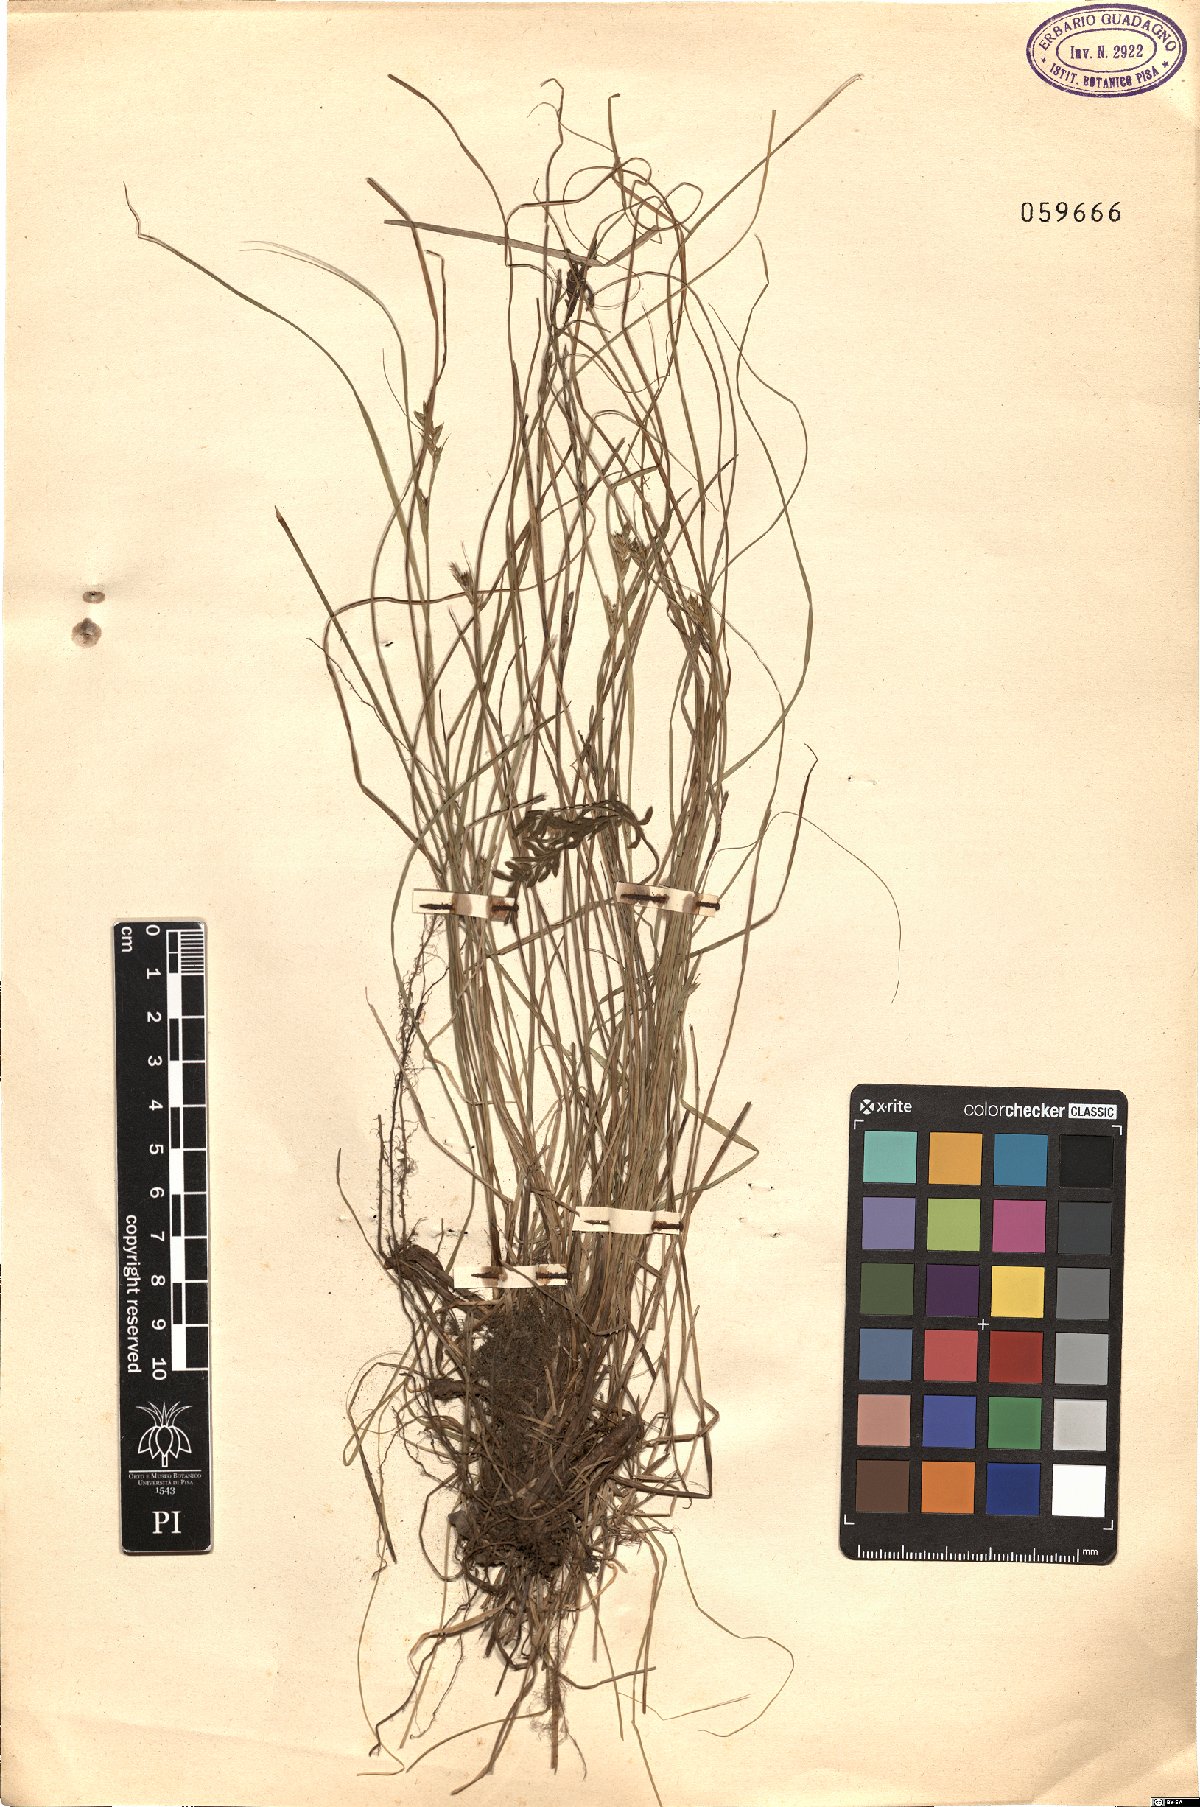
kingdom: Plantae
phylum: Tracheophyta
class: Liliopsida
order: Poales
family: Cyperaceae
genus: Carex
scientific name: Carex
